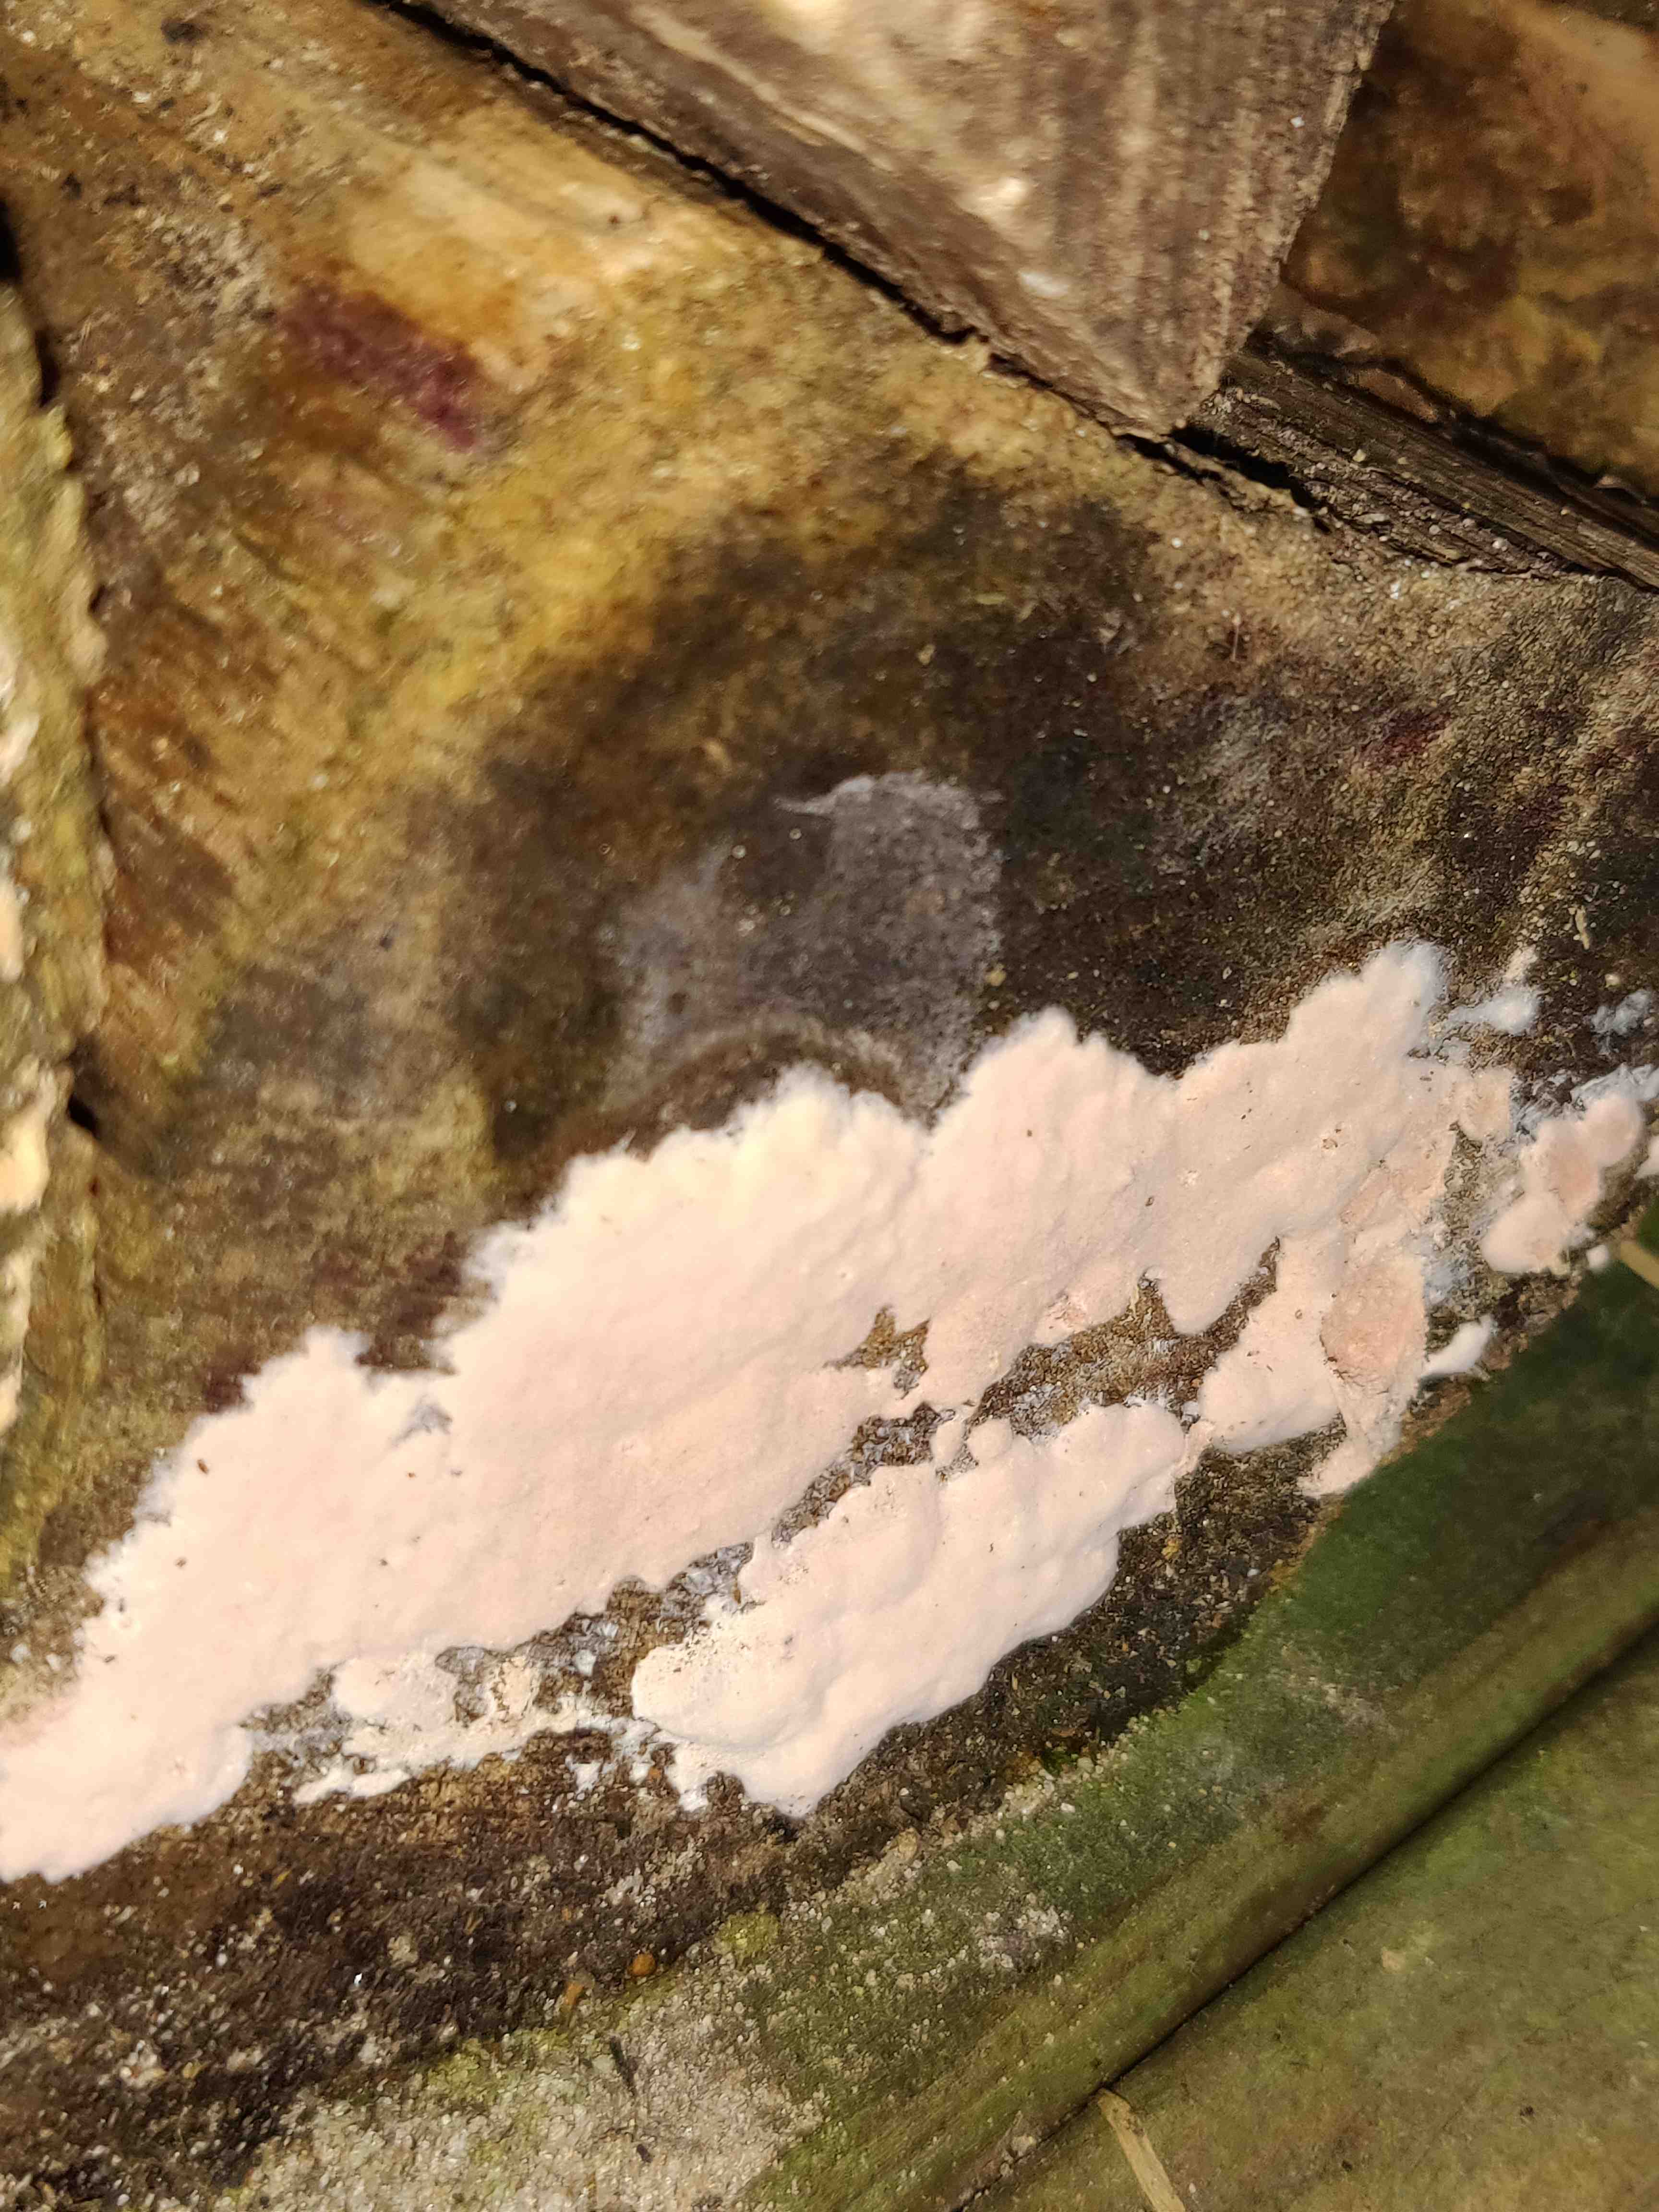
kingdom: Fungi
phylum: Basidiomycota
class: Agaricomycetes
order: Corticiales
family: Corticiaceae
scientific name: Corticiaceae
